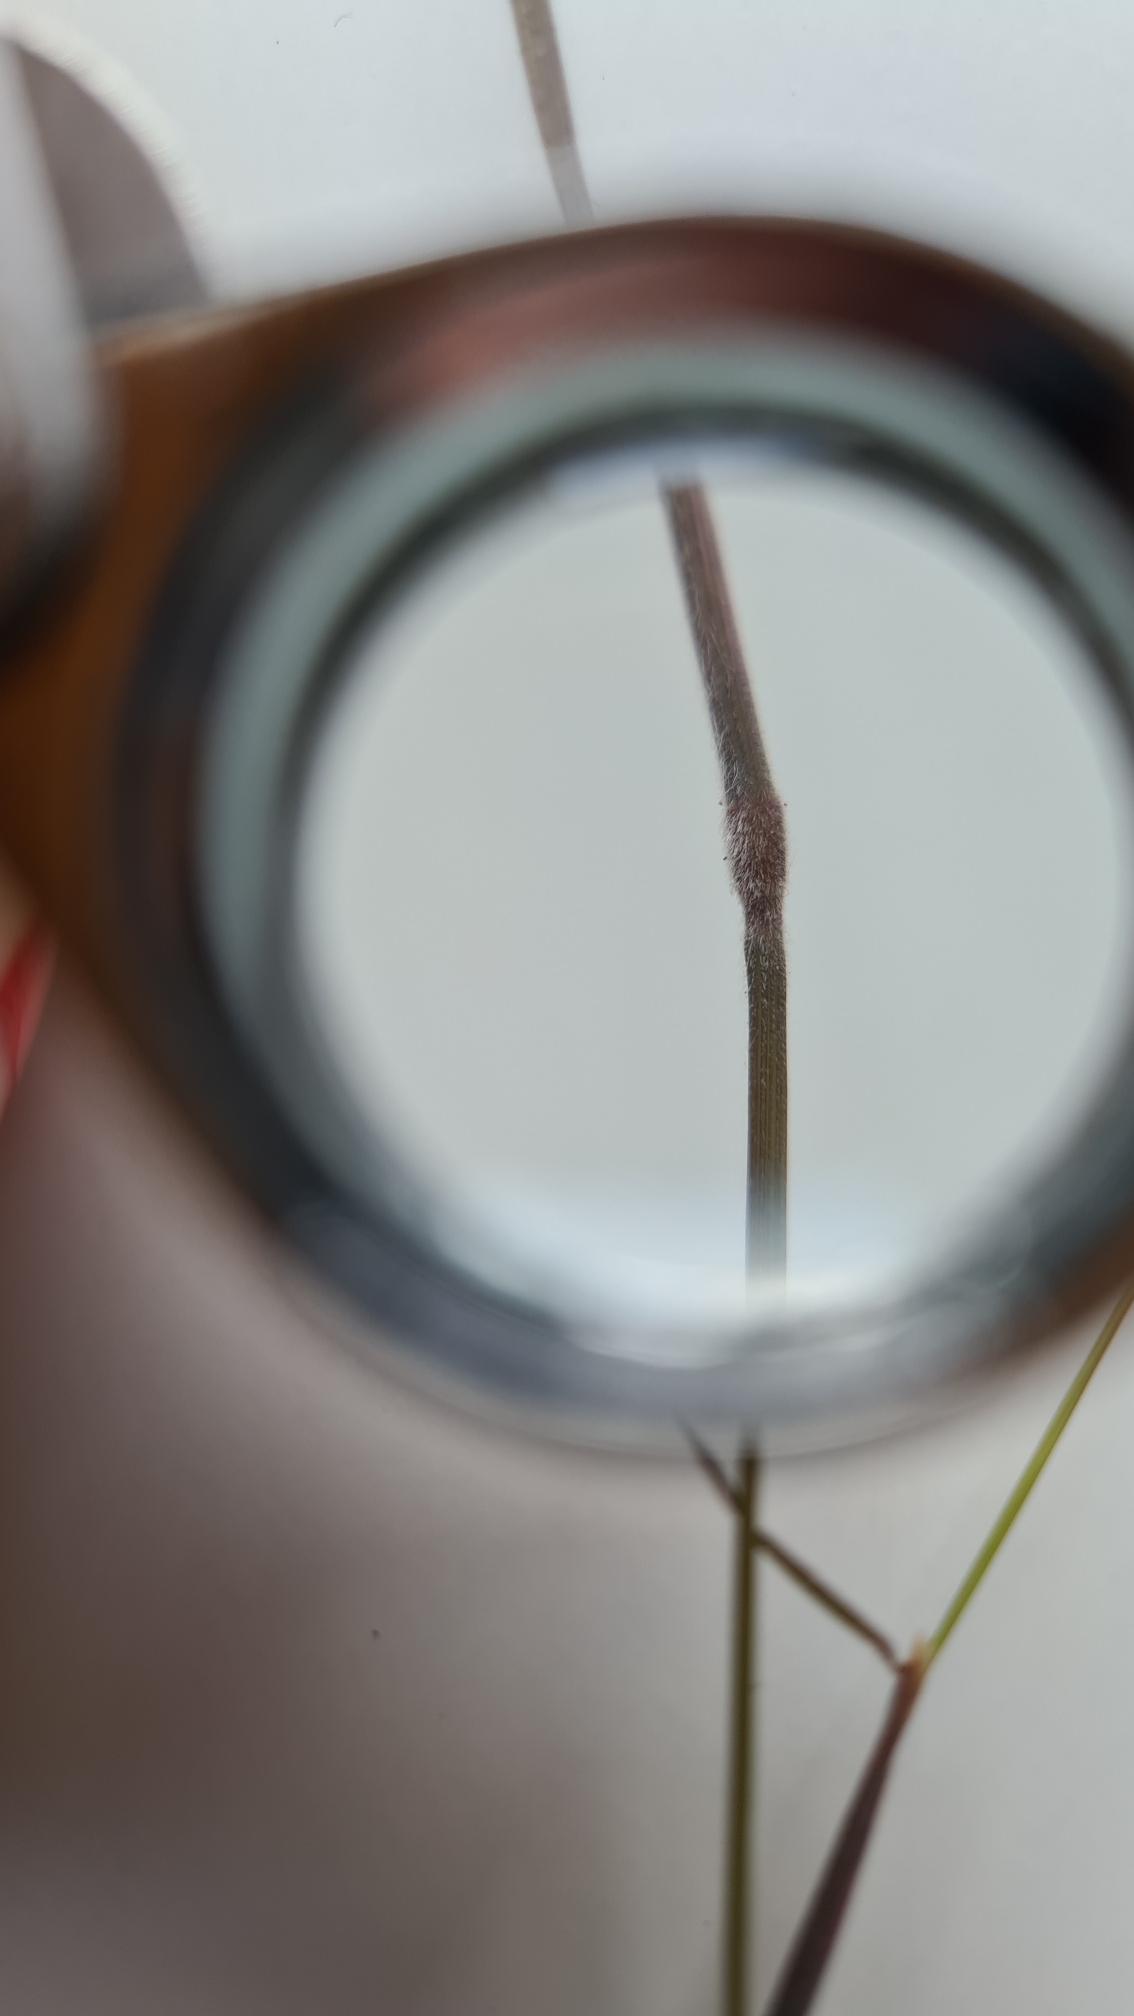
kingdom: Plantae
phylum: Tracheophyta
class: Liliopsida
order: Poales
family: Poaceae
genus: Holcus
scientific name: Holcus lanatus
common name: Fløjlsgræs
